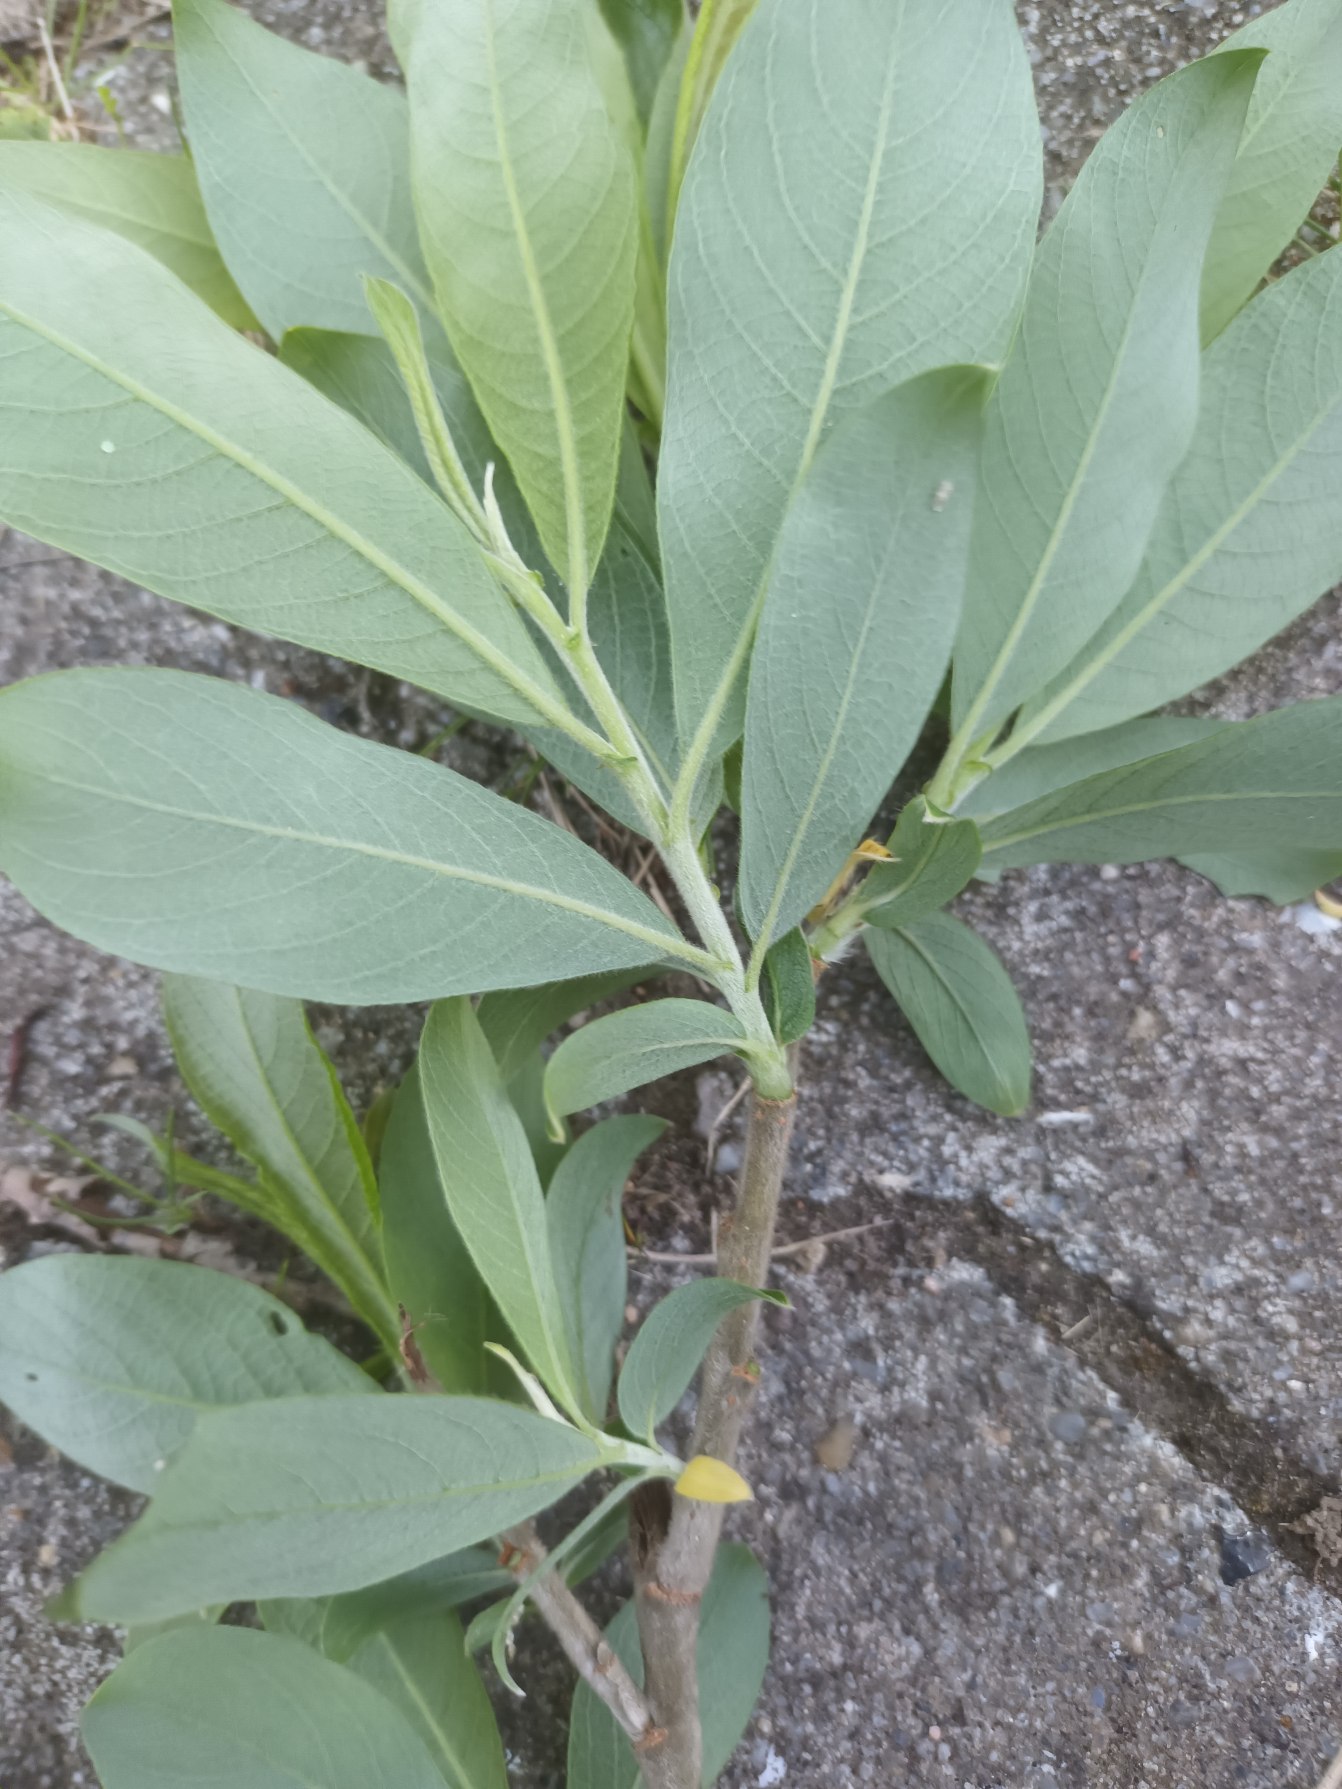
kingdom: Plantae
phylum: Tracheophyta
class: Magnoliopsida
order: Malpighiales
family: Salicaceae
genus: Salix
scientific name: Salix calodendron
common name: Smuk pil
